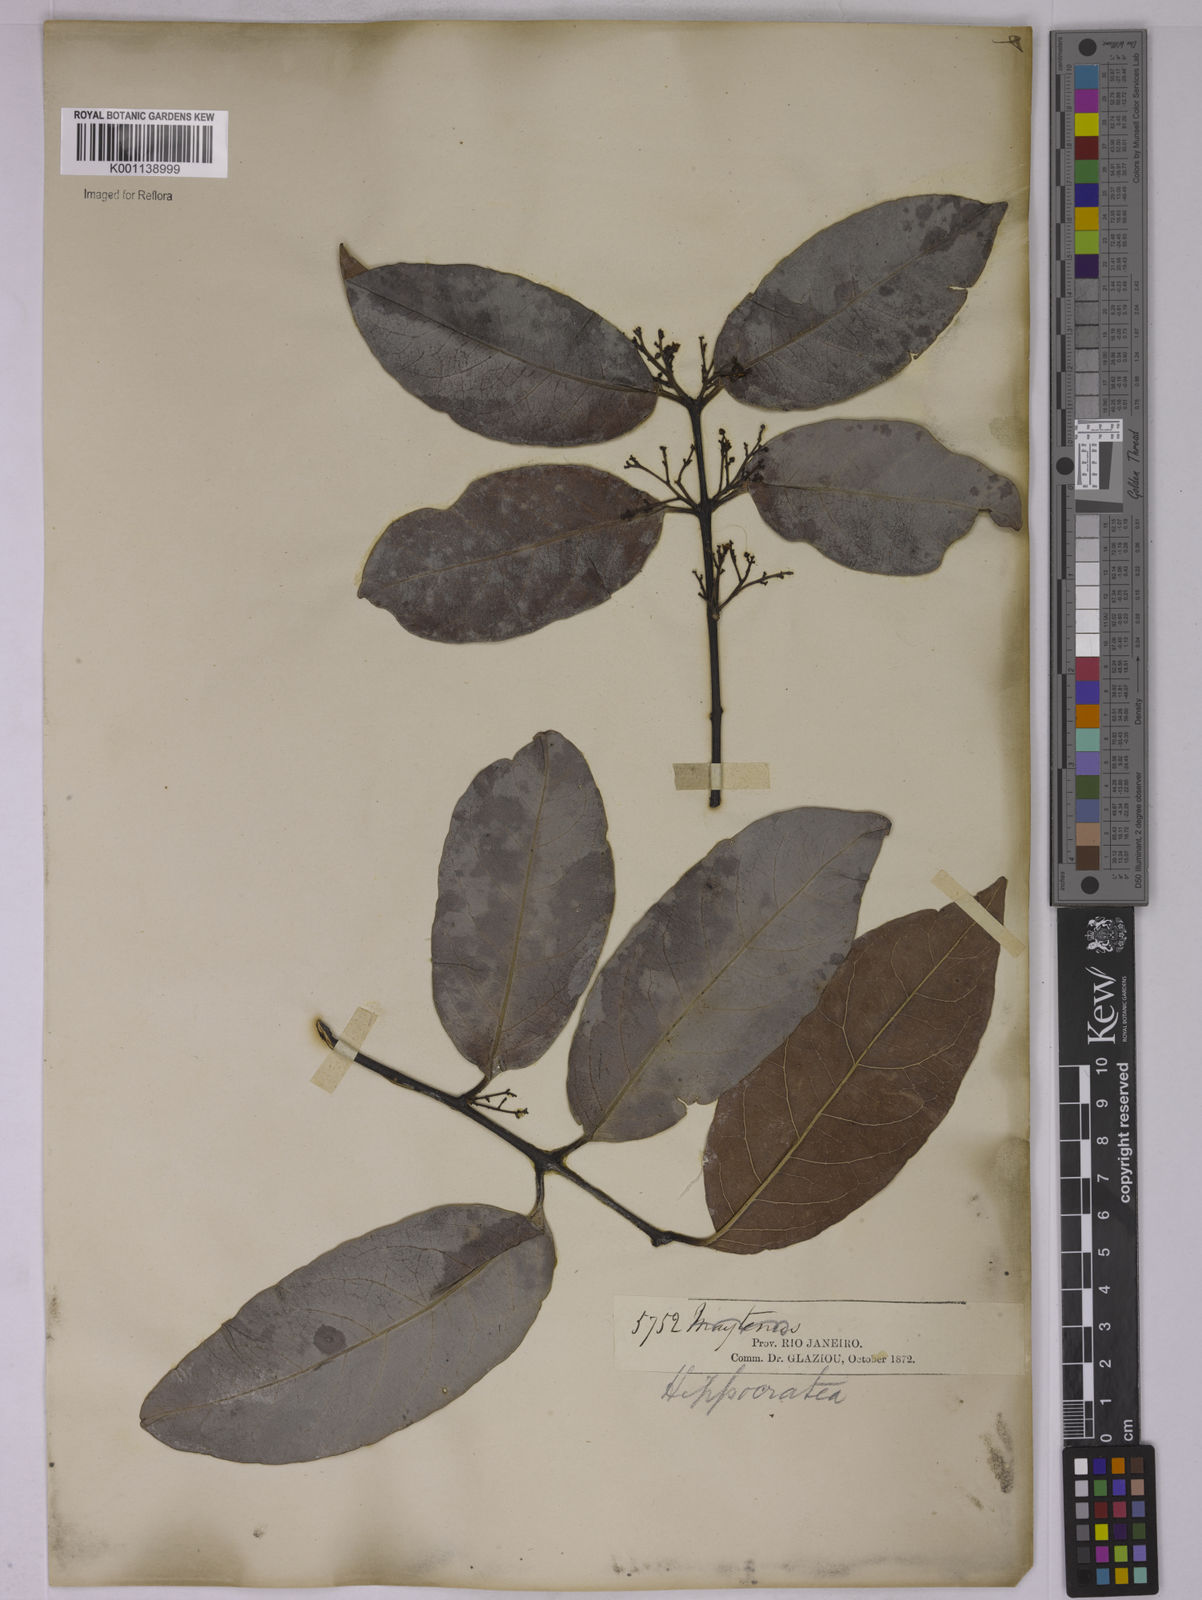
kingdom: Plantae
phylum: Tracheophyta
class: Magnoliopsida
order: Celastrales
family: Celastraceae
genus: Peritassa
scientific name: Peritassa laevigata
